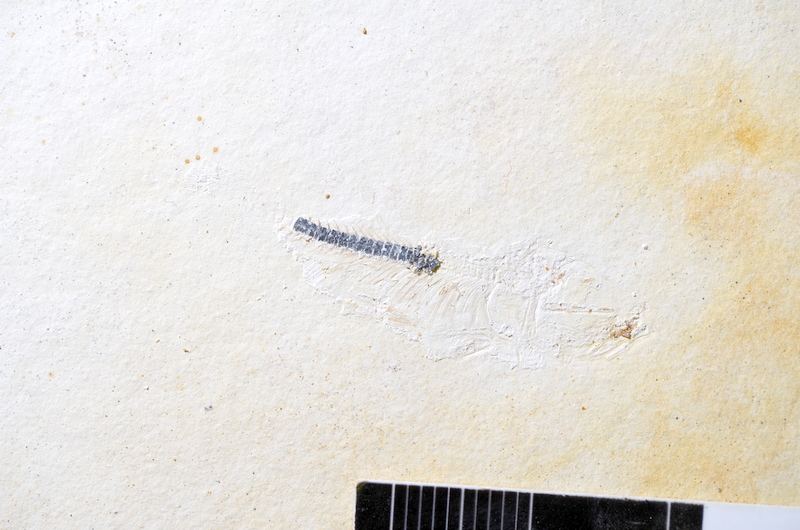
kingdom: Animalia
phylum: Chordata
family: Ascalaboidae
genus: Ebertichthys
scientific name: Ebertichthys ettlingensis
